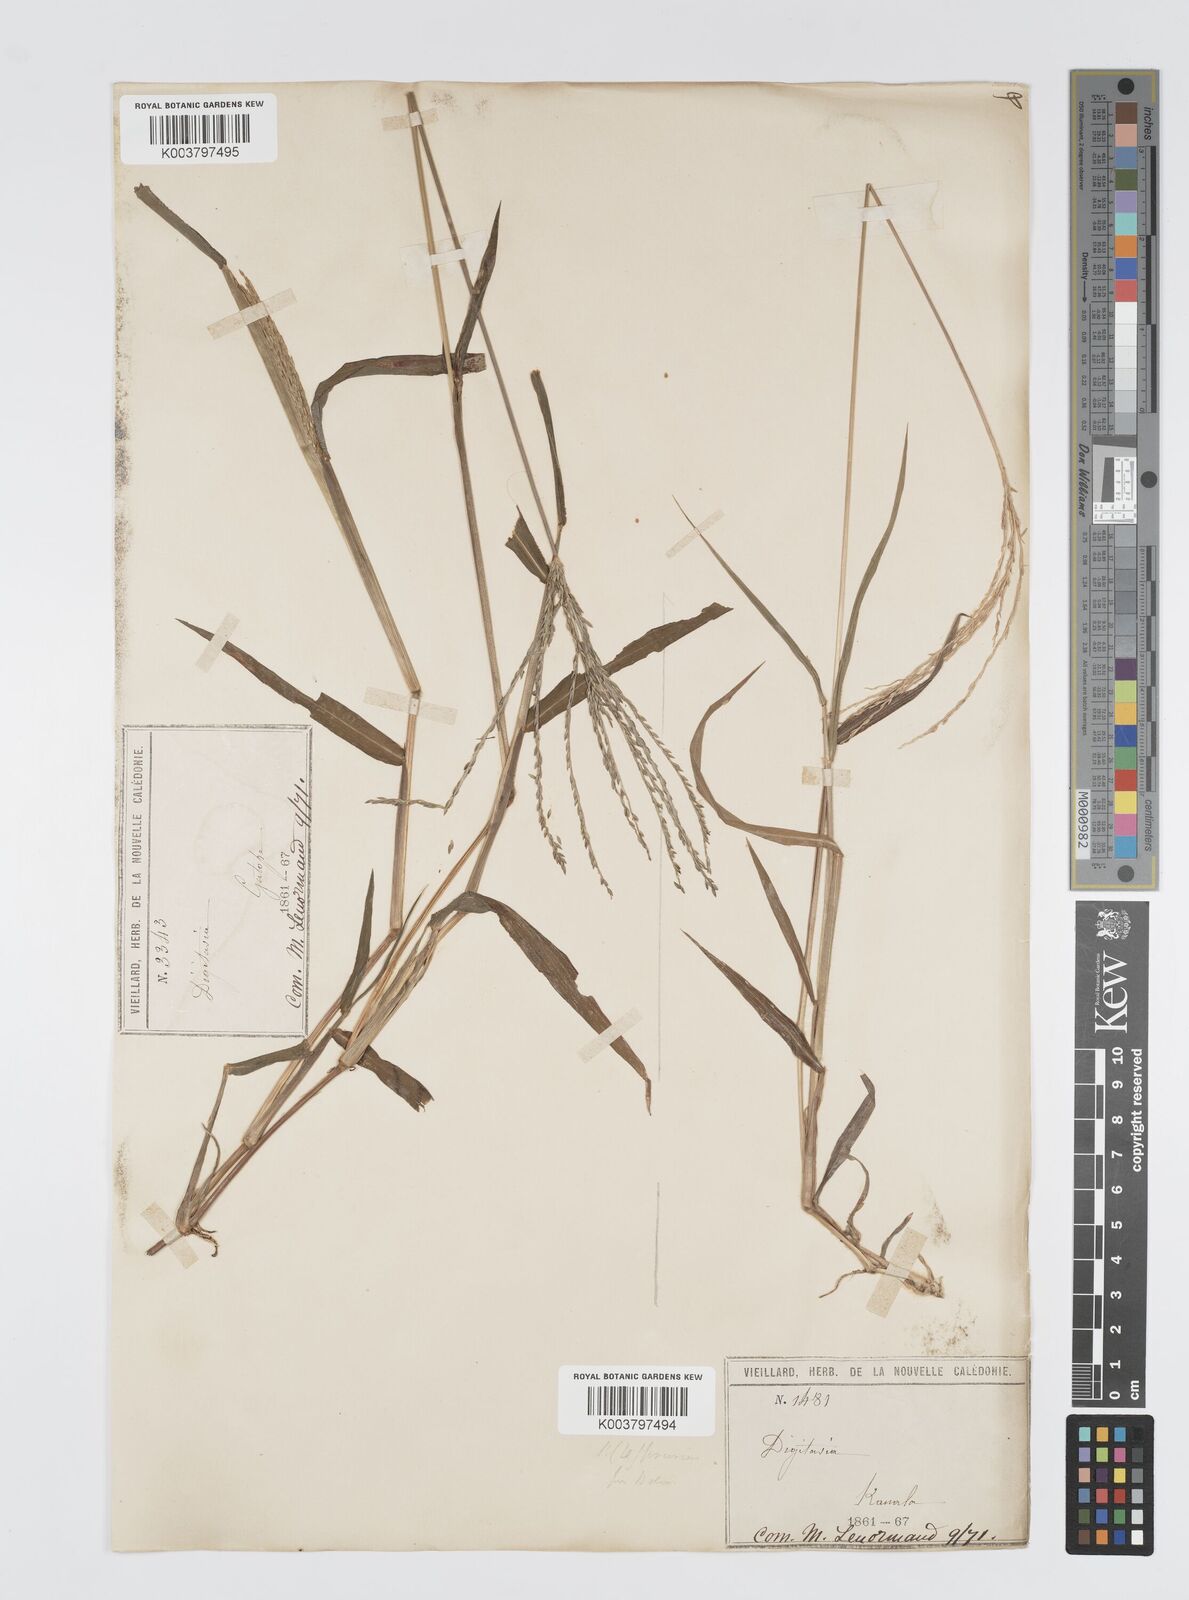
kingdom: Plantae
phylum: Tracheophyta
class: Liliopsida
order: Poales
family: Poaceae
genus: Digitaria
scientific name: Digitaria setigera
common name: East indian crabgrass
